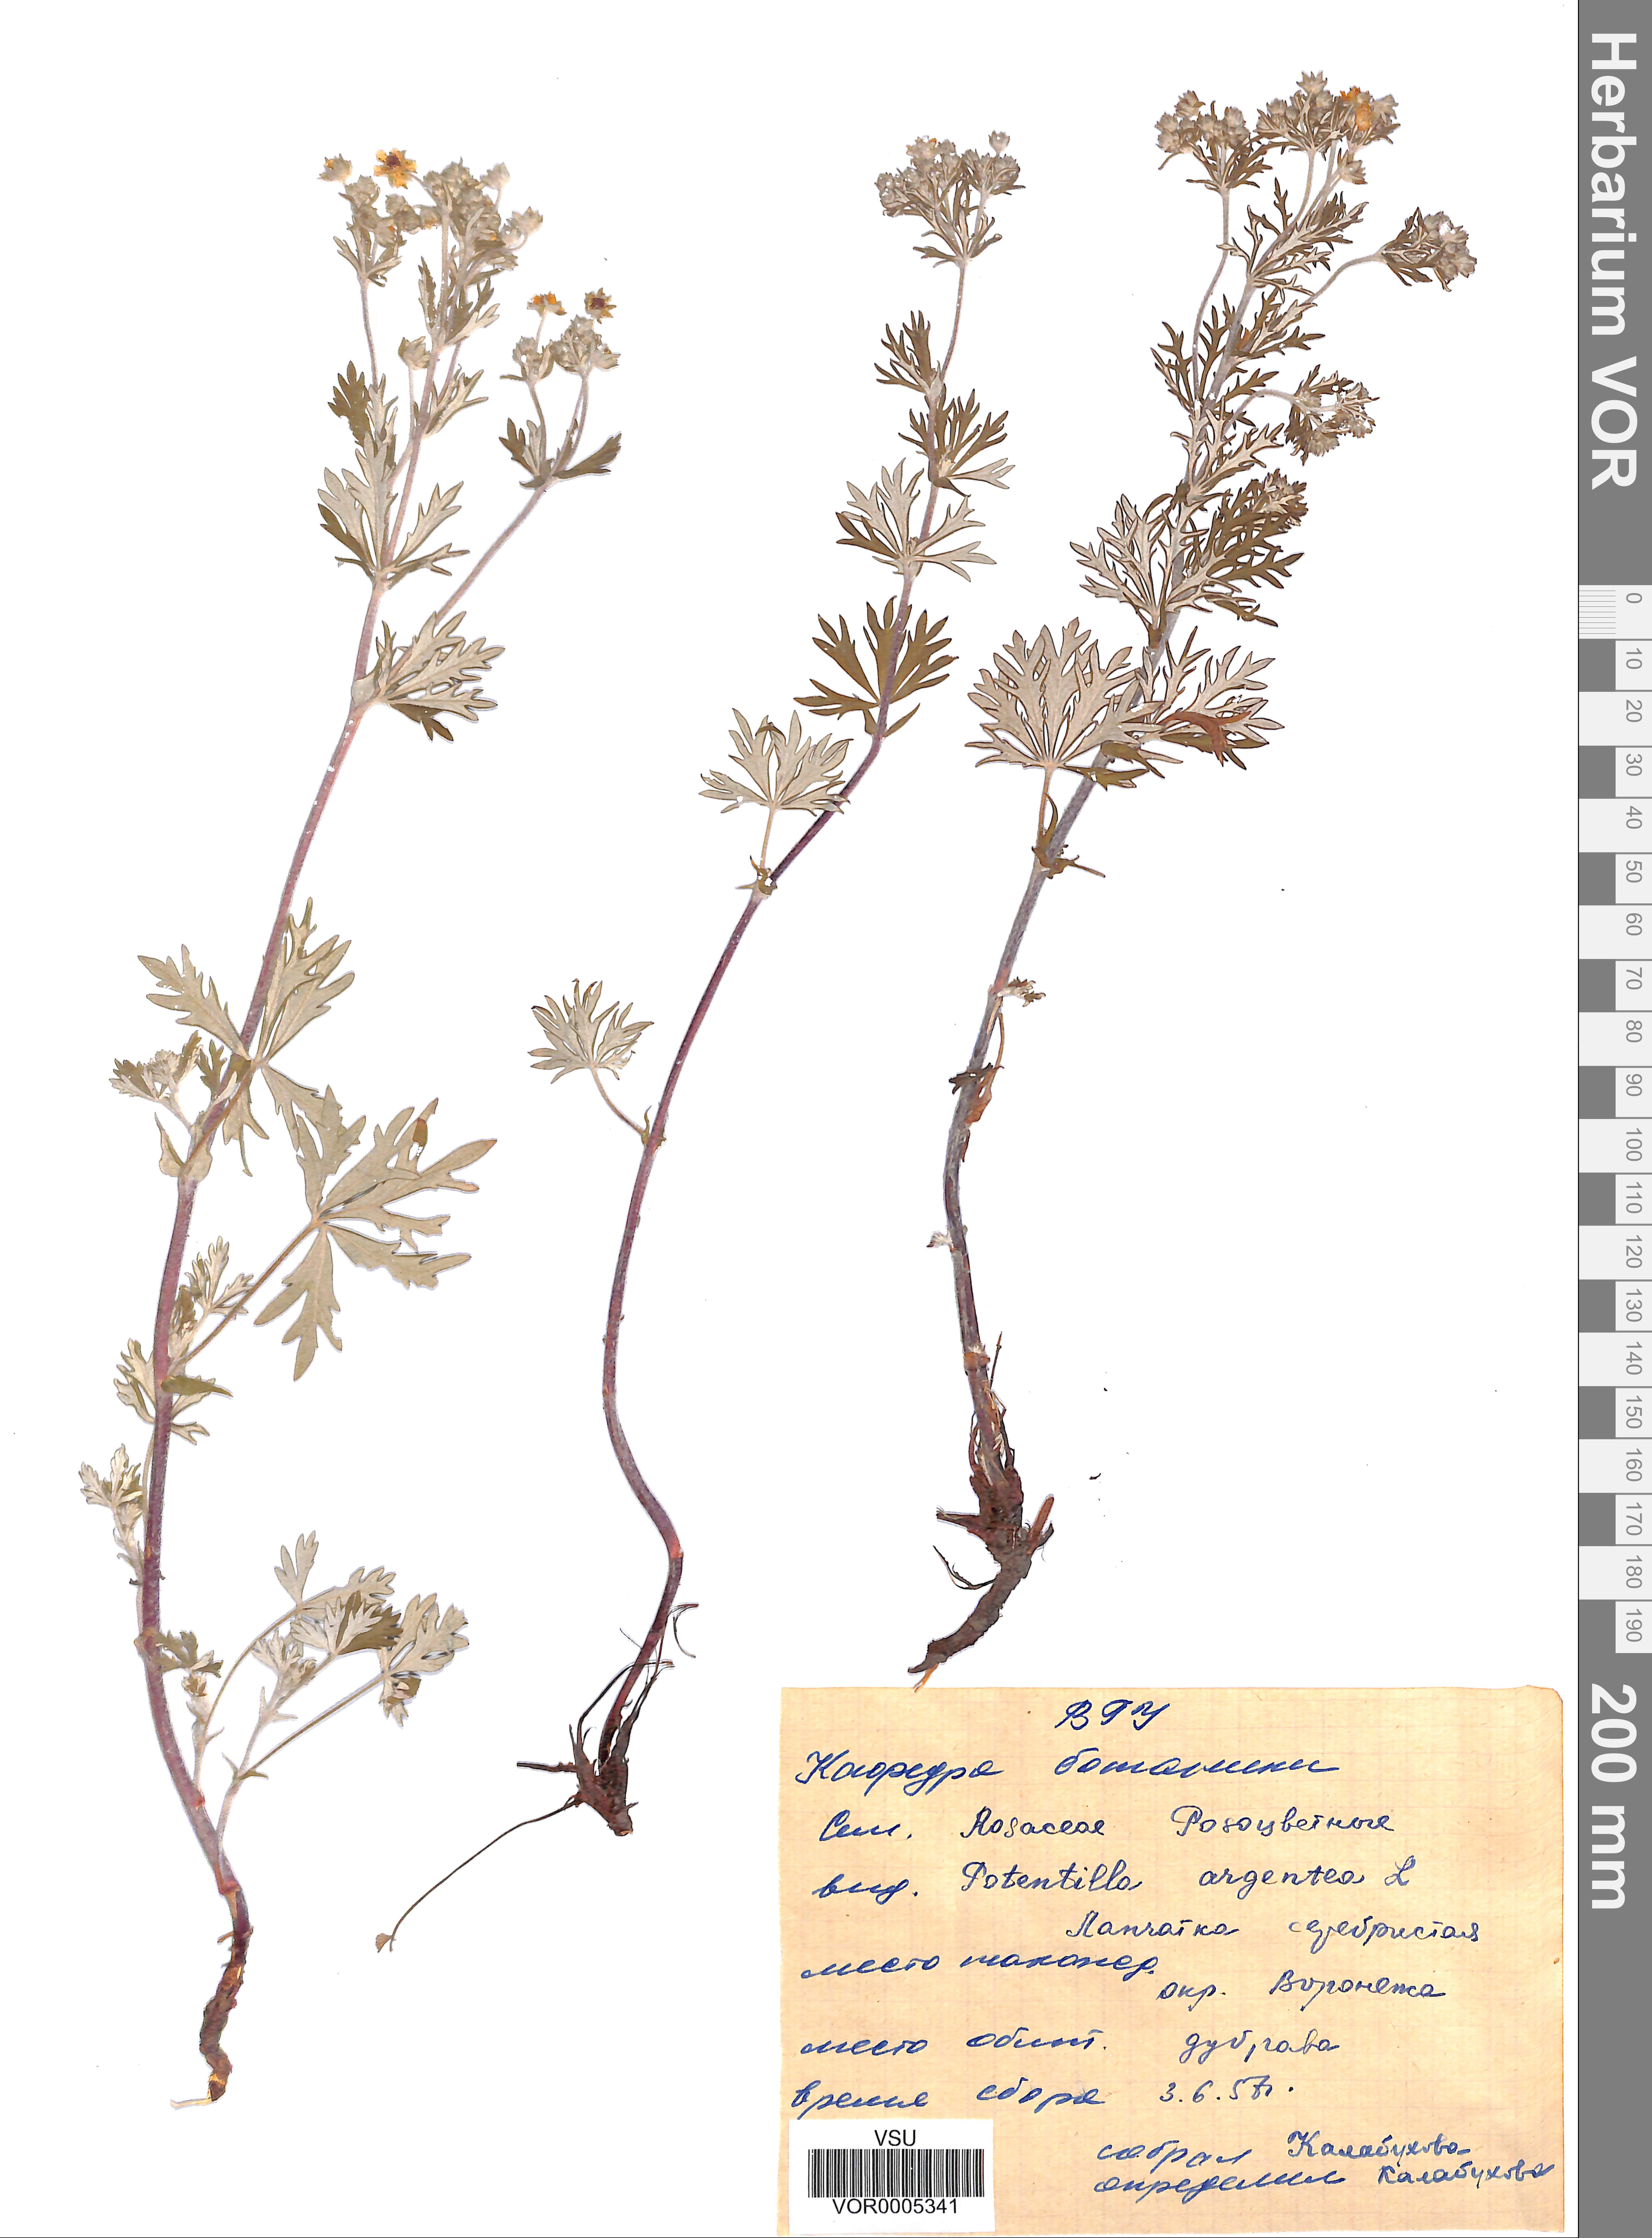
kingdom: Plantae
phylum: Tracheophyta
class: Magnoliopsida
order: Rosales
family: Rosaceae
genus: Potentilla
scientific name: Potentilla argentea
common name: Hoary cinquefoil
